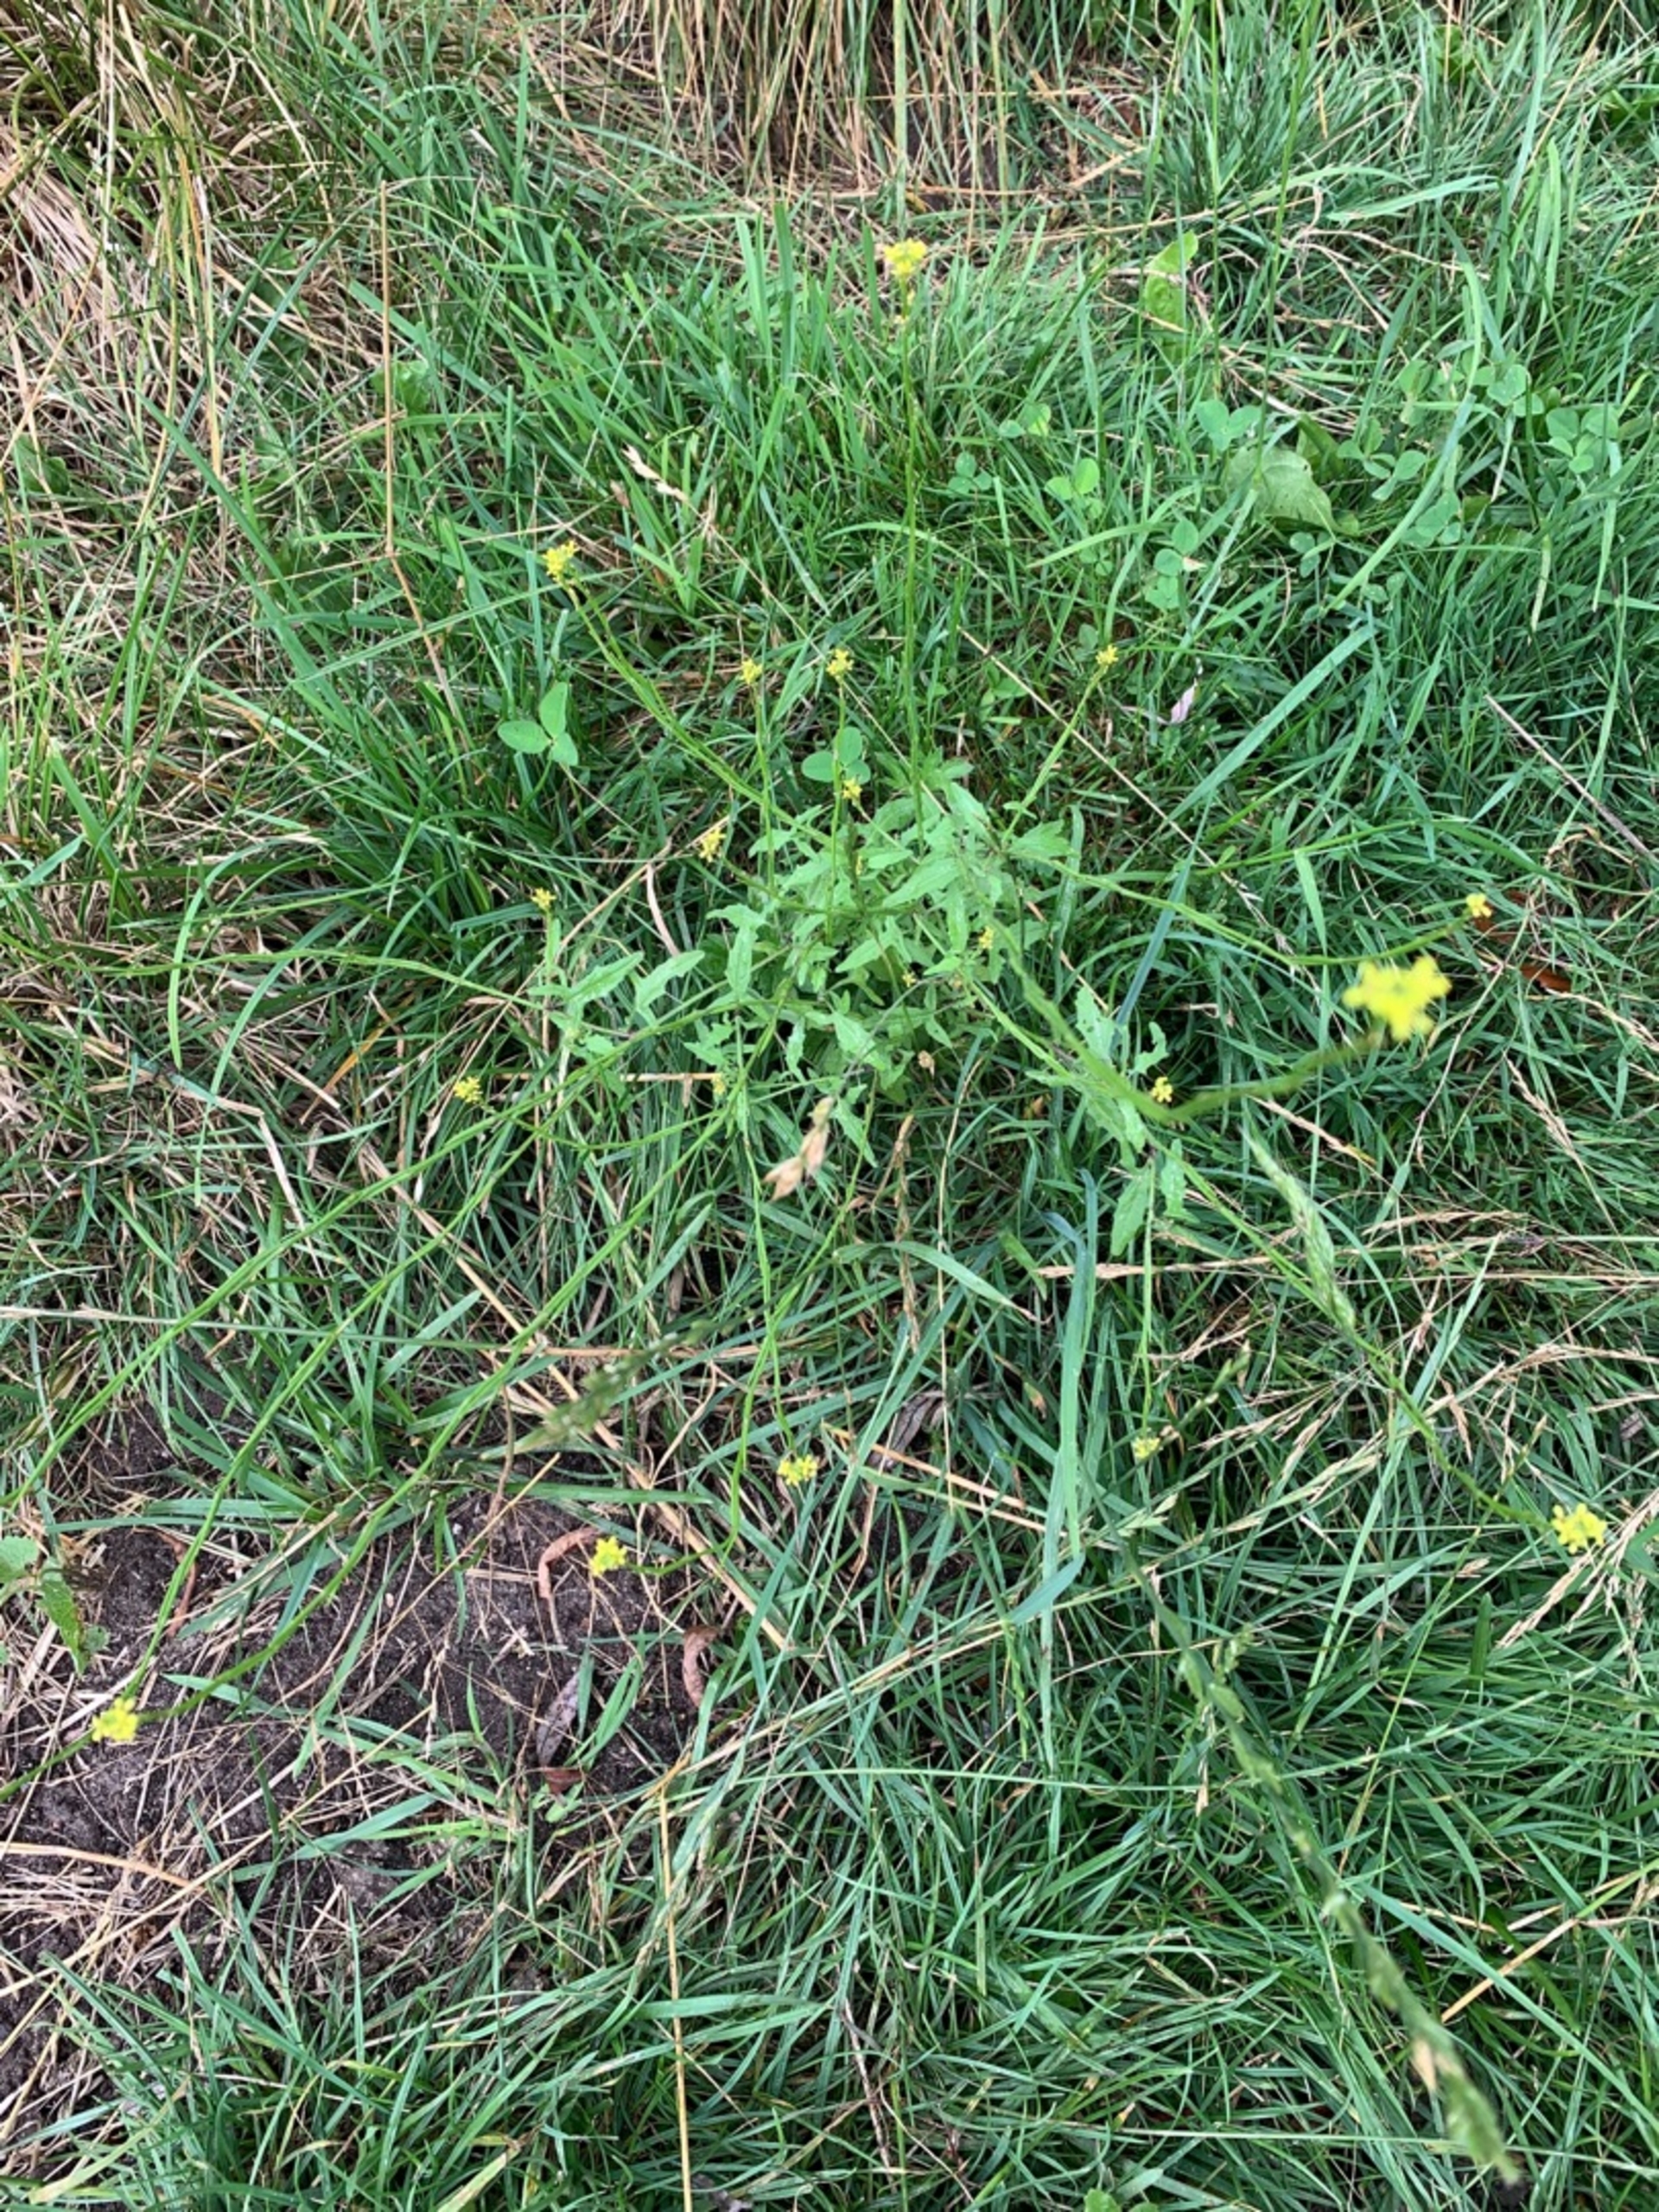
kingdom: Plantae
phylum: Tracheophyta
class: Magnoliopsida
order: Brassicales
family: Brassicaceae
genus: Sisymbrium
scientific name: Sisymbrium officinale
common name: Rank vejsennep
